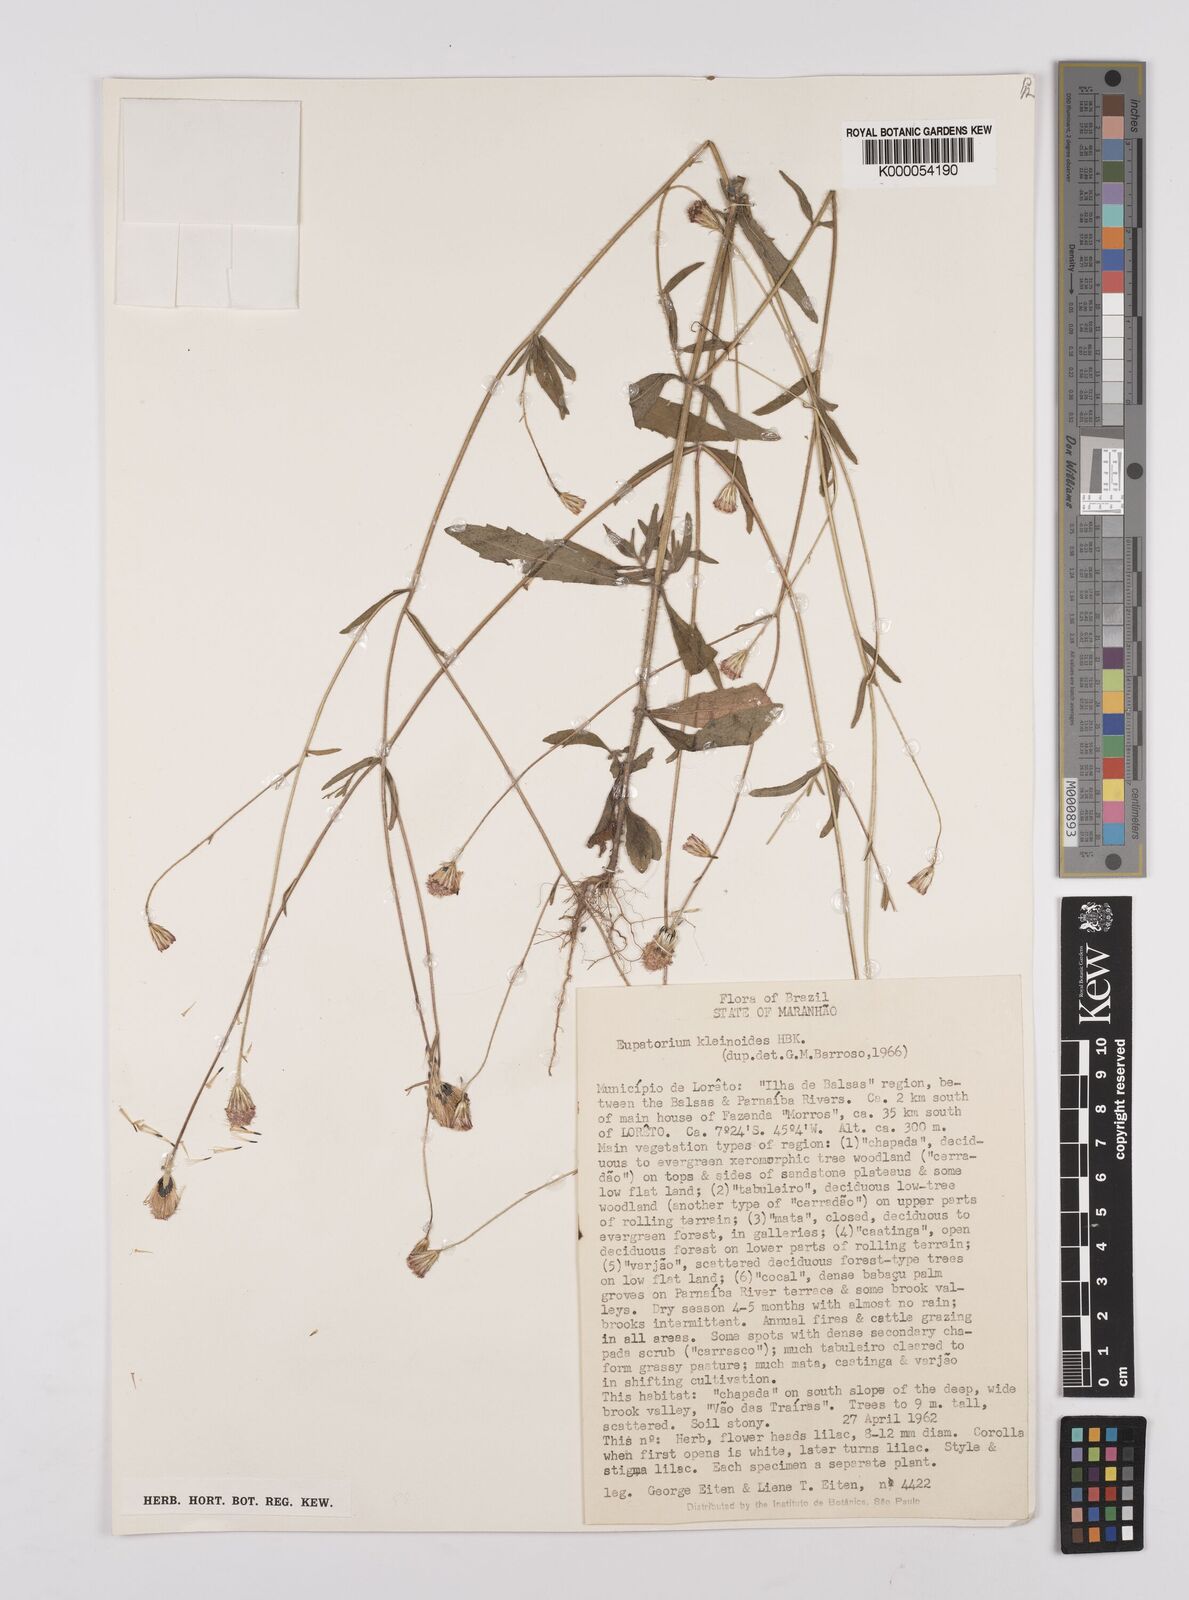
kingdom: Plantae
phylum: Tracheophyta
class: Magnoliopsida
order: Asterales
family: Asteraceae
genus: Praxelis
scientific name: Praxelis kleinioides
